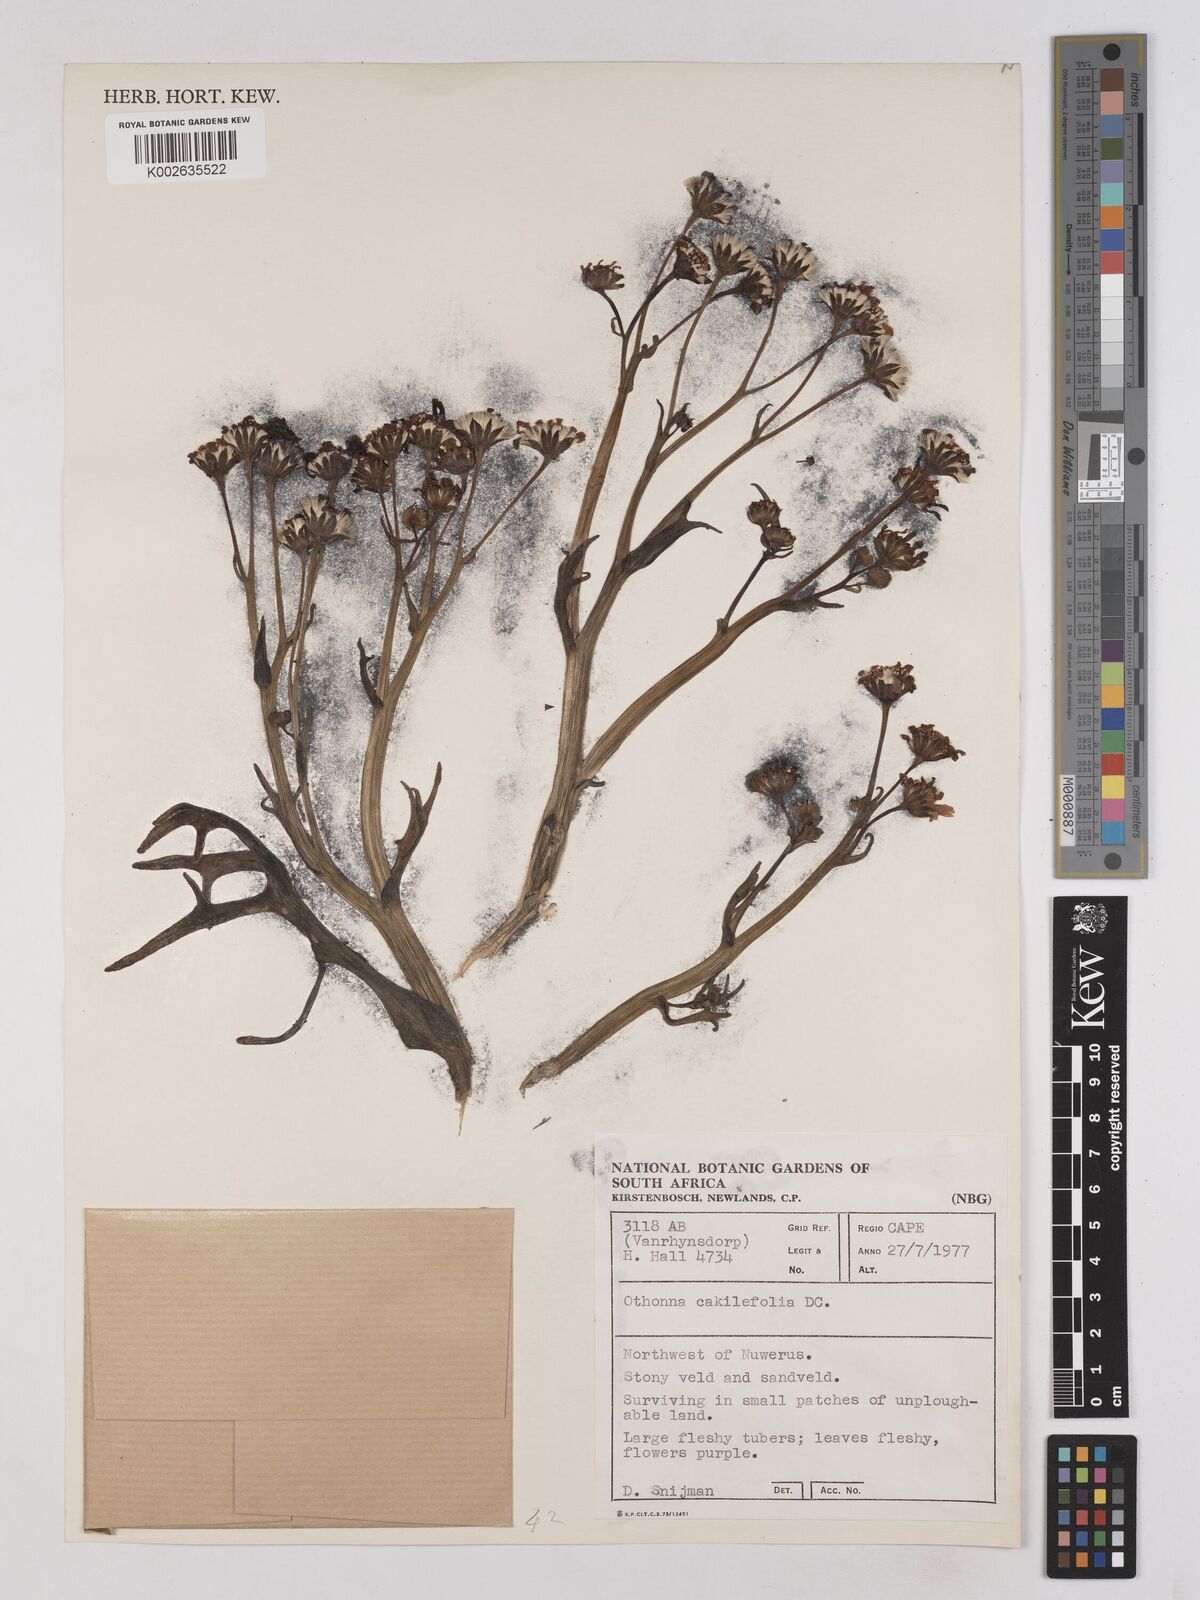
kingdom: Plantae
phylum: Tracheophyta
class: Magnoliopsida
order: Asterales
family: Asteraceae
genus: Othonna
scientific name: Othonna cakilefolia
